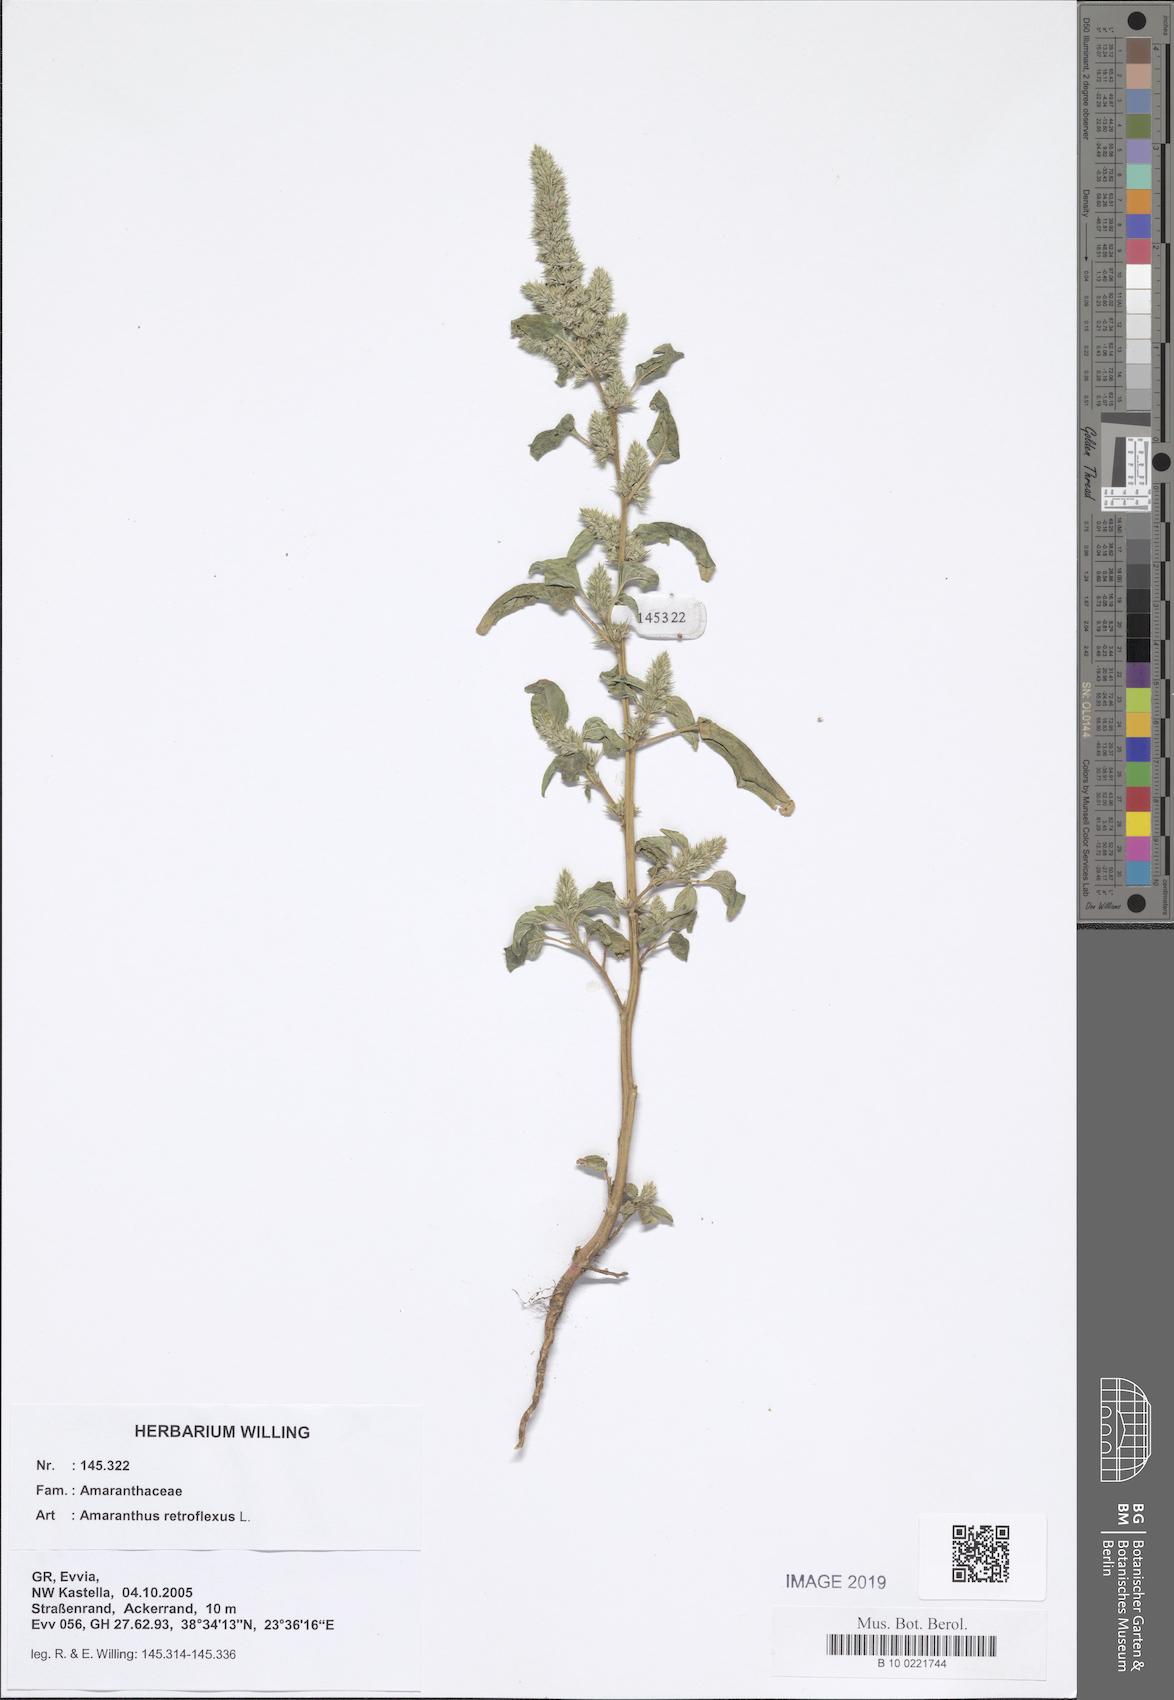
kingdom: Plantae
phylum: Tracheophyta
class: Magnoliopsida
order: Caryophyllales
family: Amaranthaceae
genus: Amaranthus
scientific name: Amaranthus retroflexus
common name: Redroot amaranth
